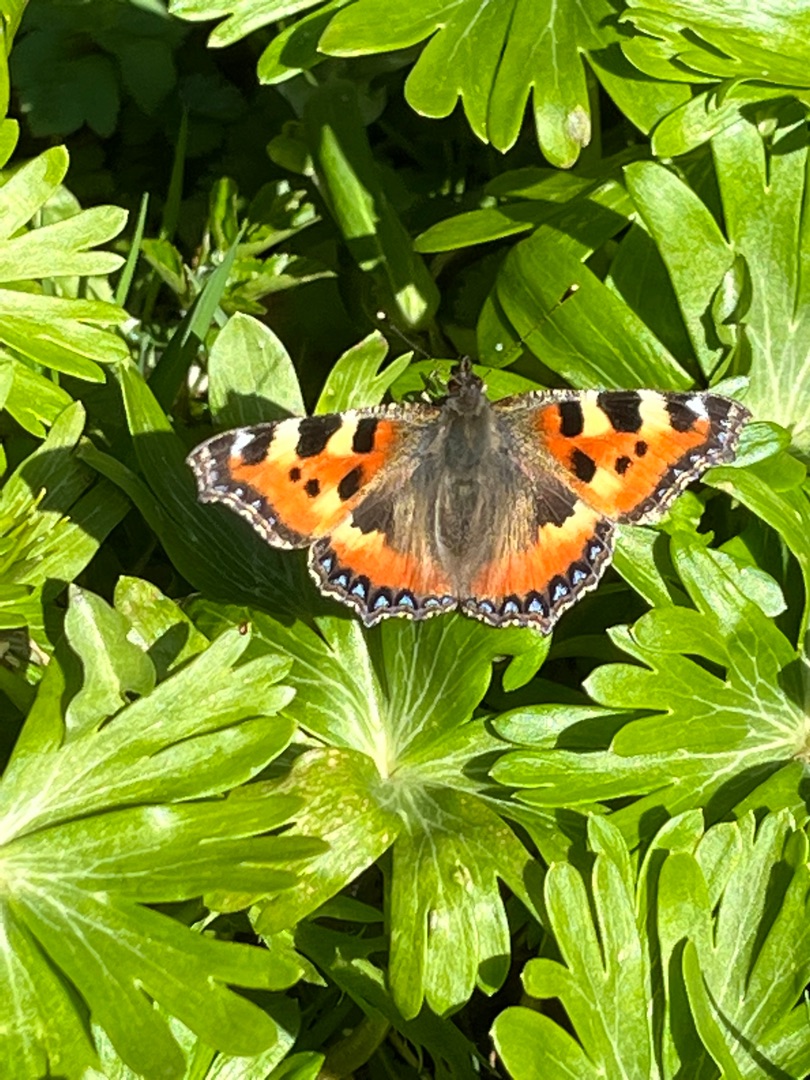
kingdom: Animalia
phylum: Arthropoda
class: Insecta
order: Lepidoptera
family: Nymphalidae
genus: Aglais
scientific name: Aglais urticae
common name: Nældens takvinge
